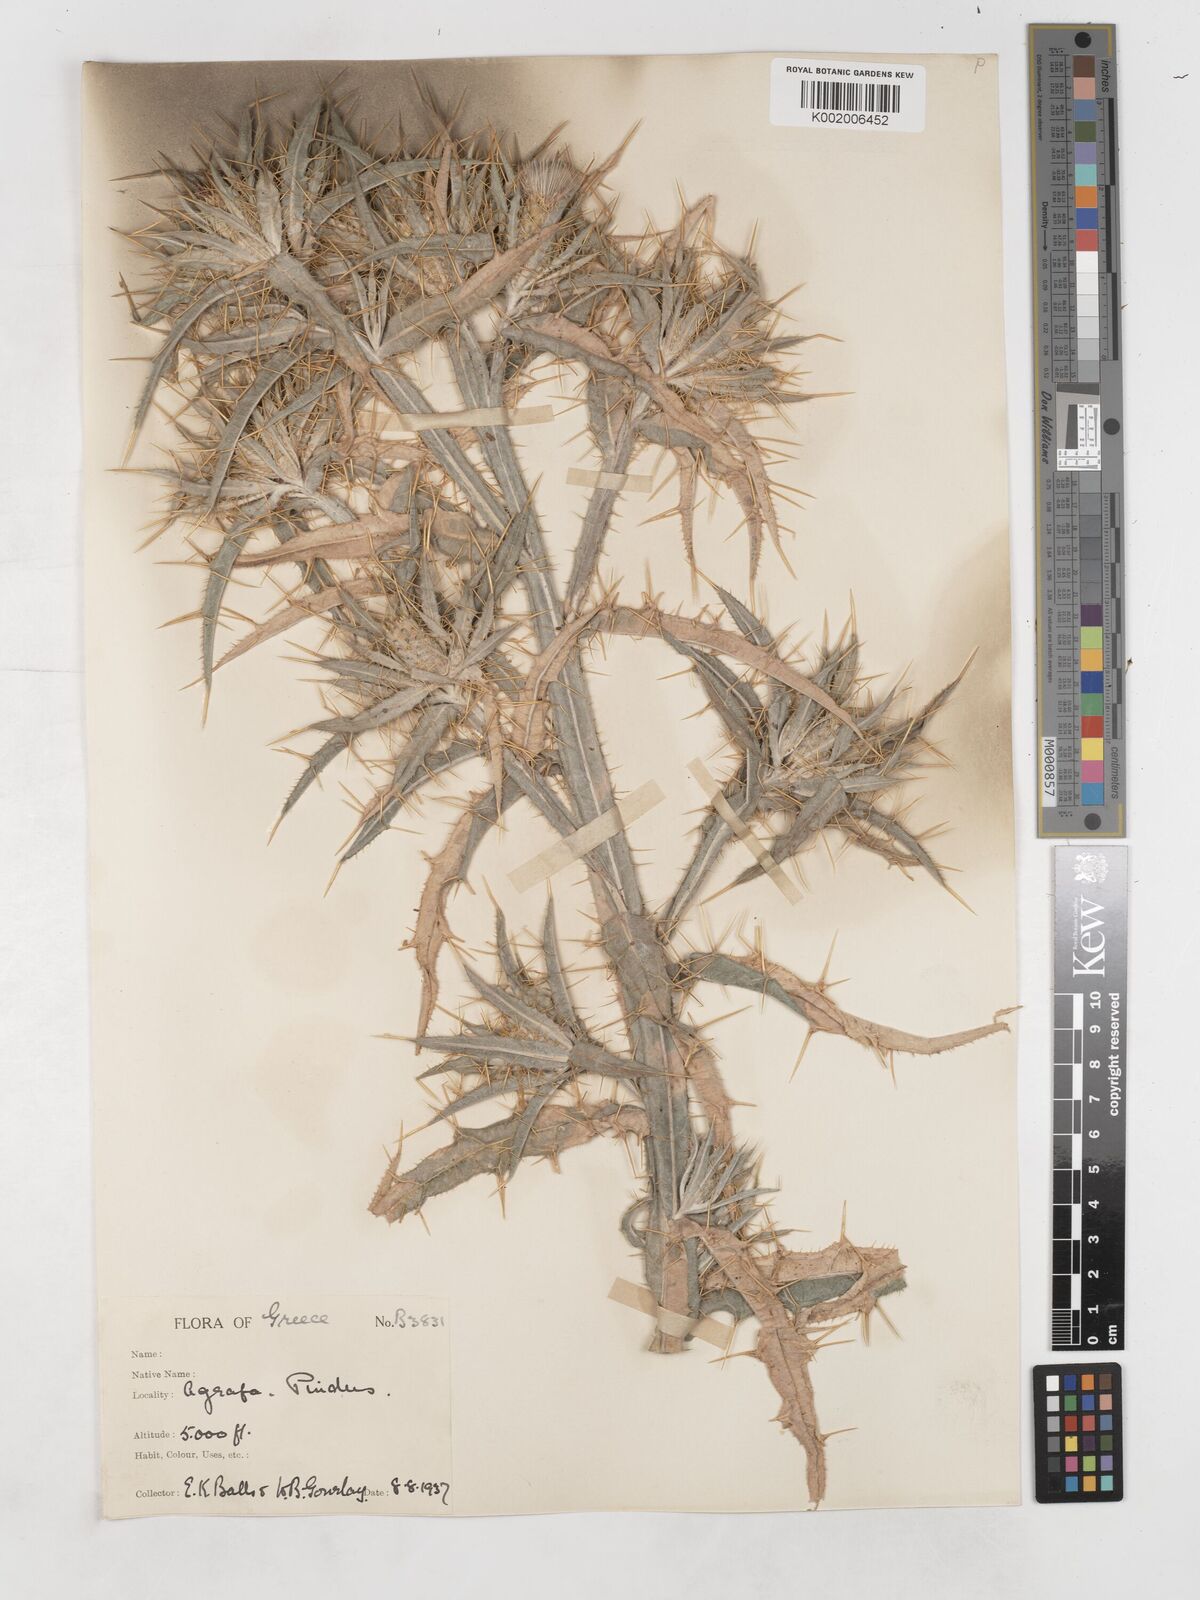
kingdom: Plantae
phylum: Tracheophyta
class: Magnoliopsida
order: Asterales
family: Asteraceae
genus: Picnomon
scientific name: Picnomon acarna
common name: Soldier thistle
